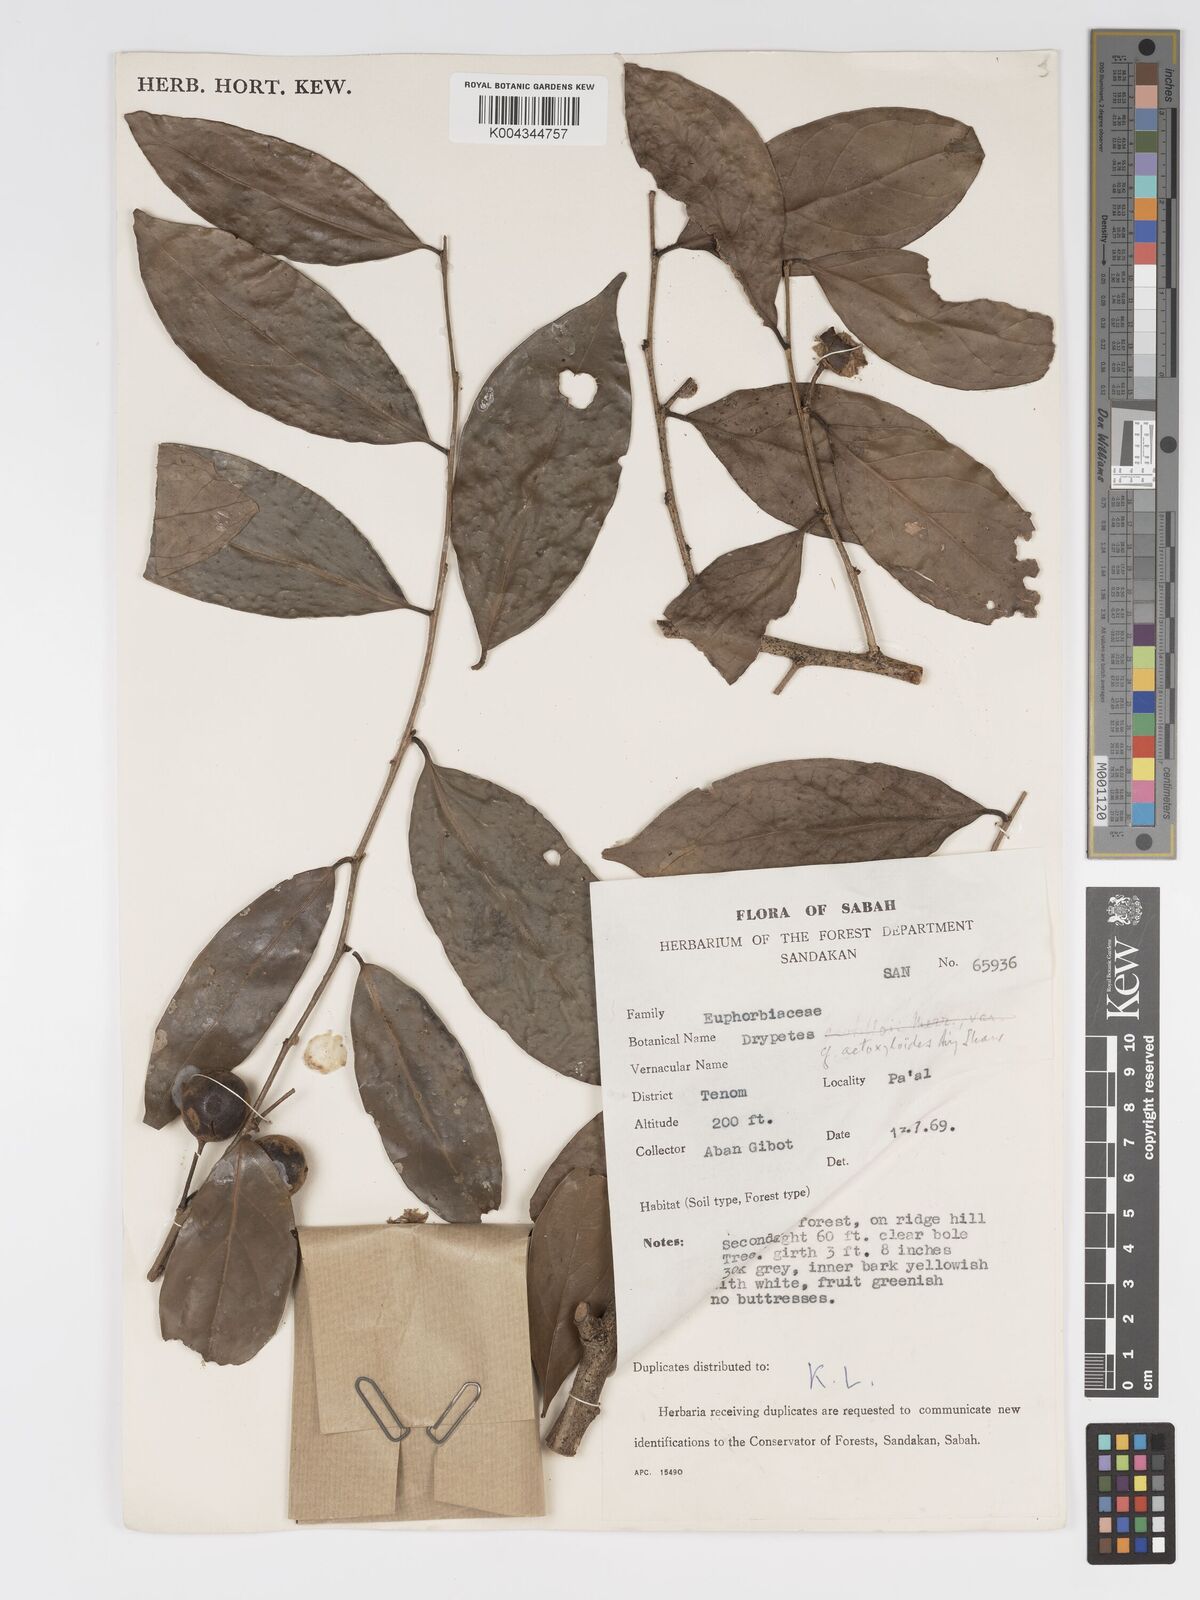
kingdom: Plantae
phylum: Tracheophyta
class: Magnoliopsida
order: Malpighiales
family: Putranjivaceae
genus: Drypetes
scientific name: Drypetes aetoxyloides
